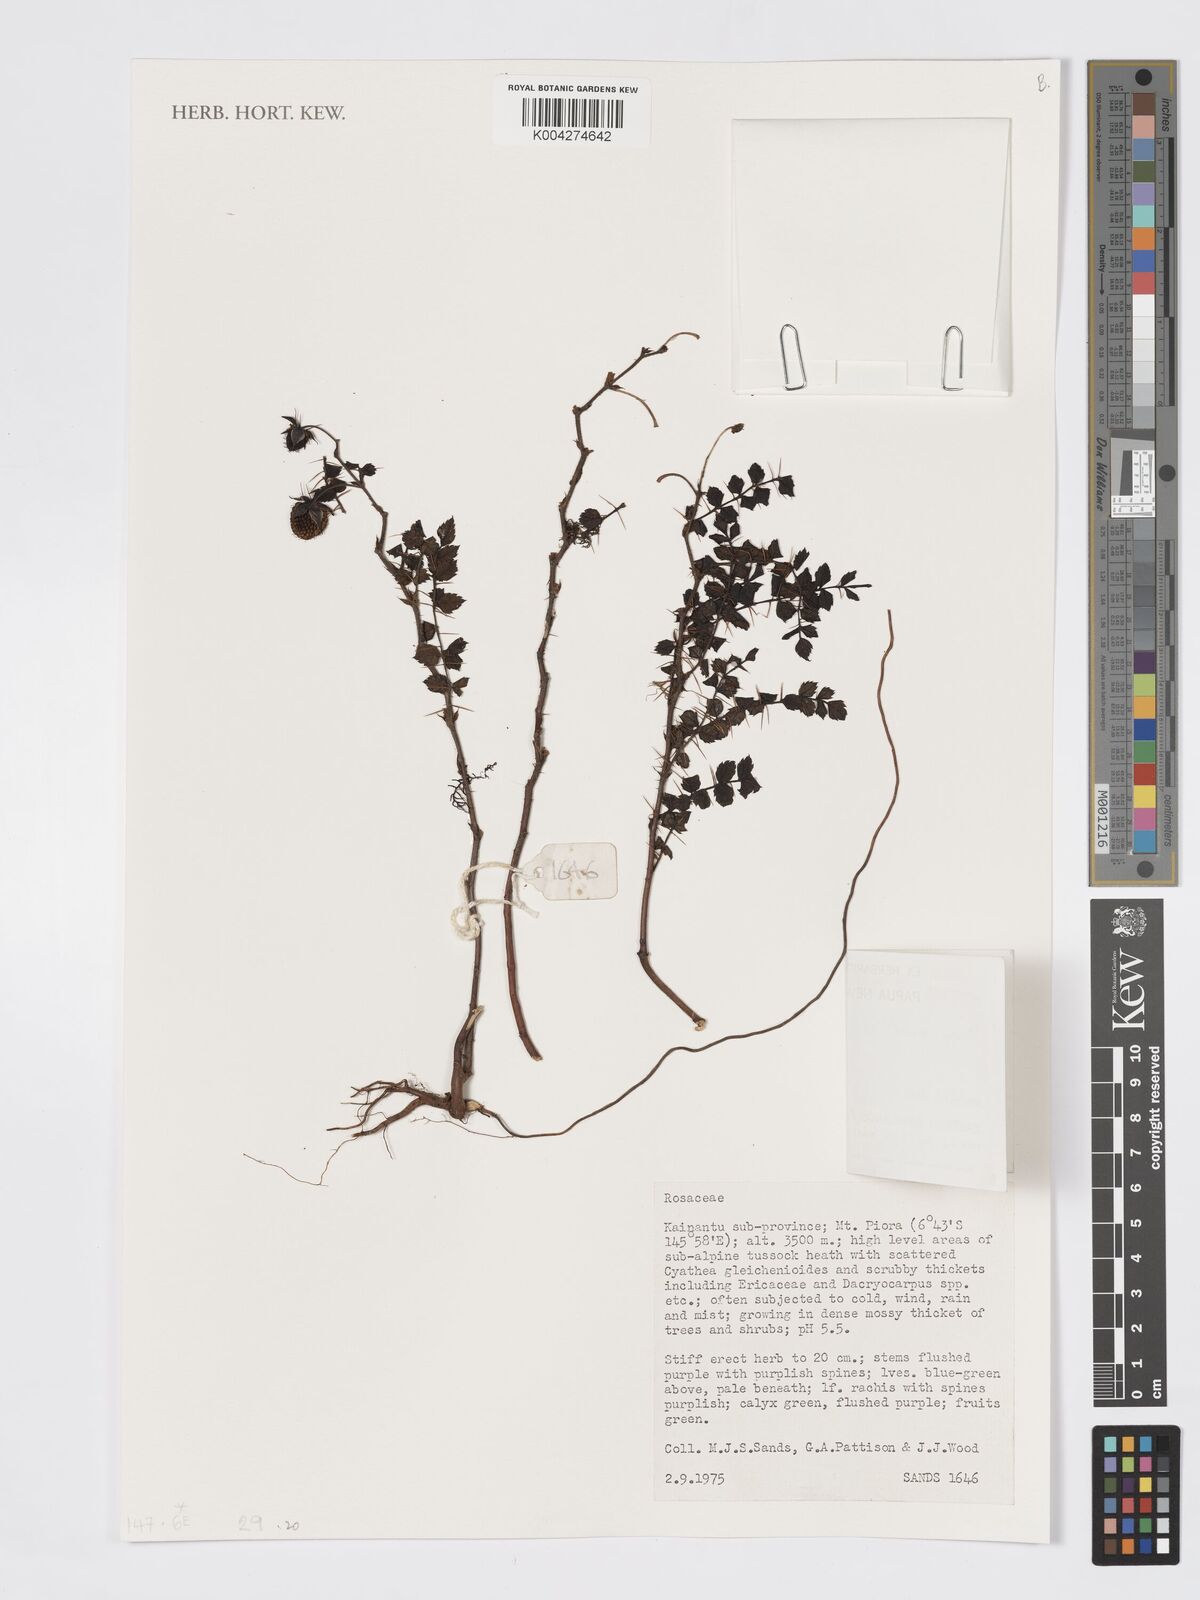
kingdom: Plantae
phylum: Tracheophyta
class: Magnoliopsida
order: Rosales
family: Rosaceae
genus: Rubus
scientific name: Rubus montis-wilhelmii
